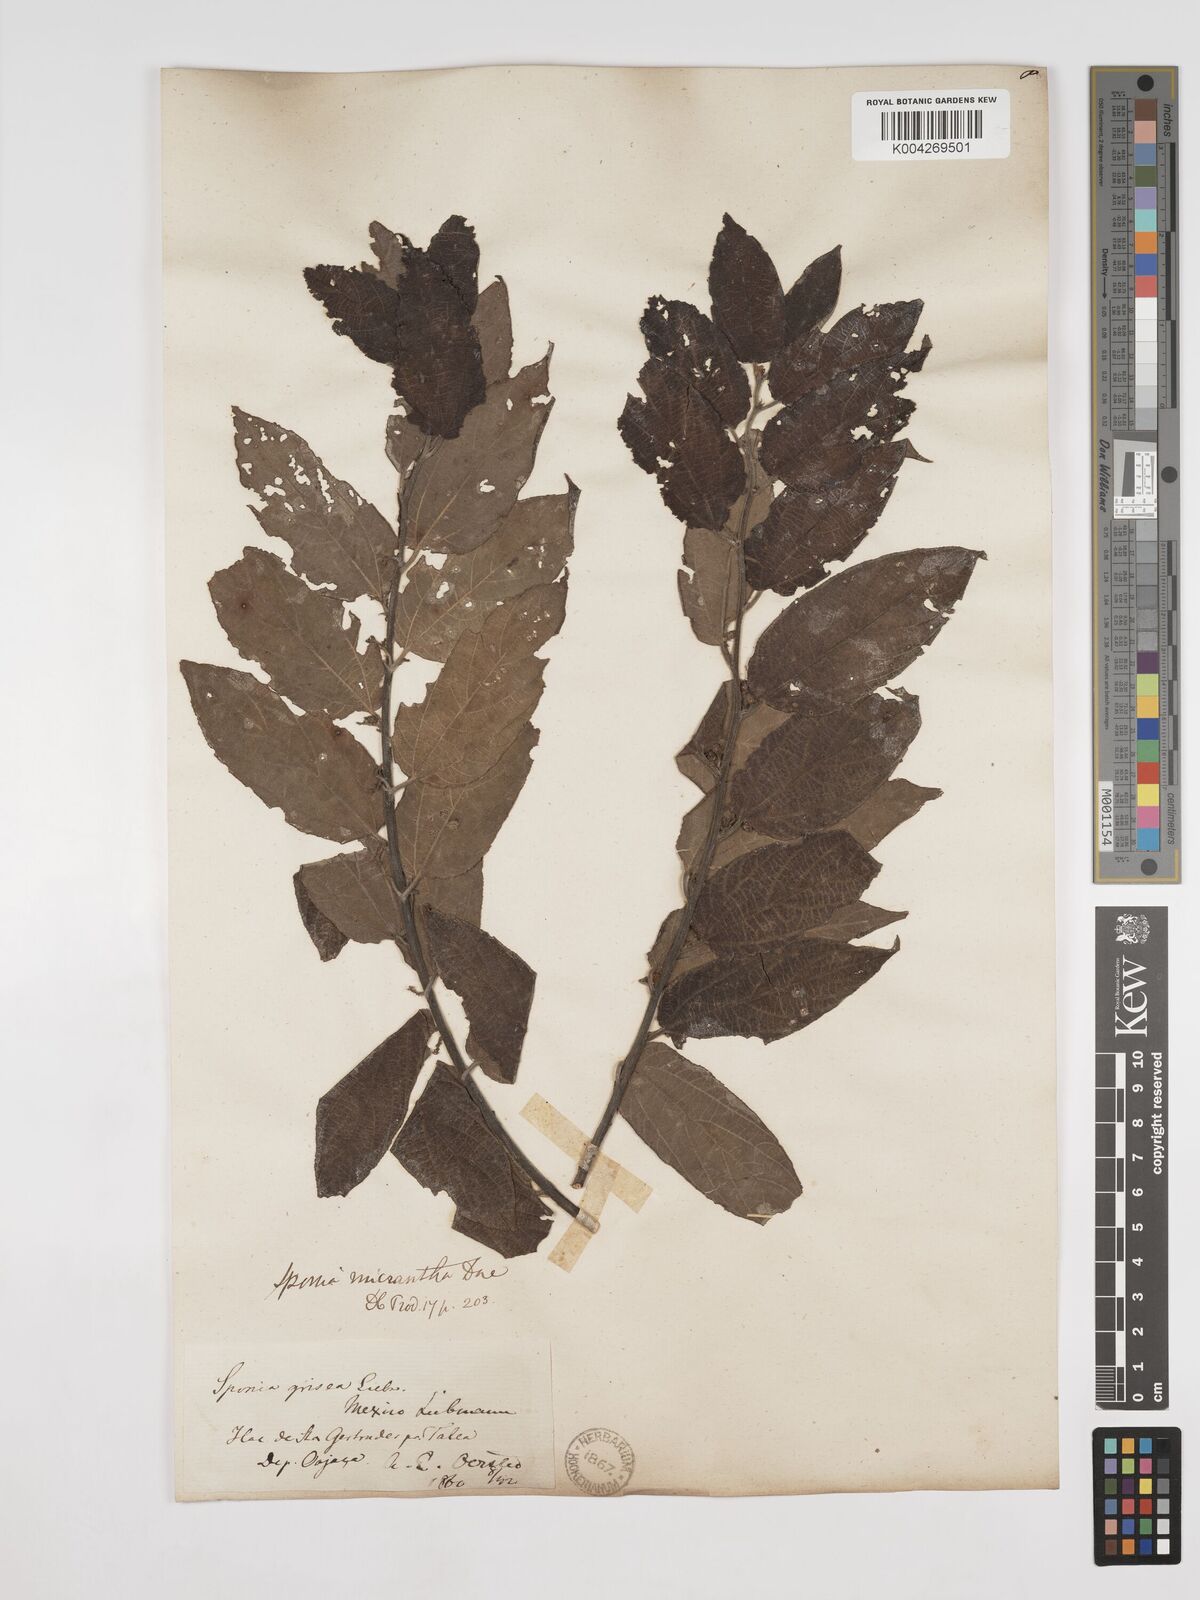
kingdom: Plantae
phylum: Tracheophyta
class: Magnoliopsida
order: Rosales
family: Cannabaceae
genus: Trema
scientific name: Trema micranthum
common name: Jamaican nettletree
